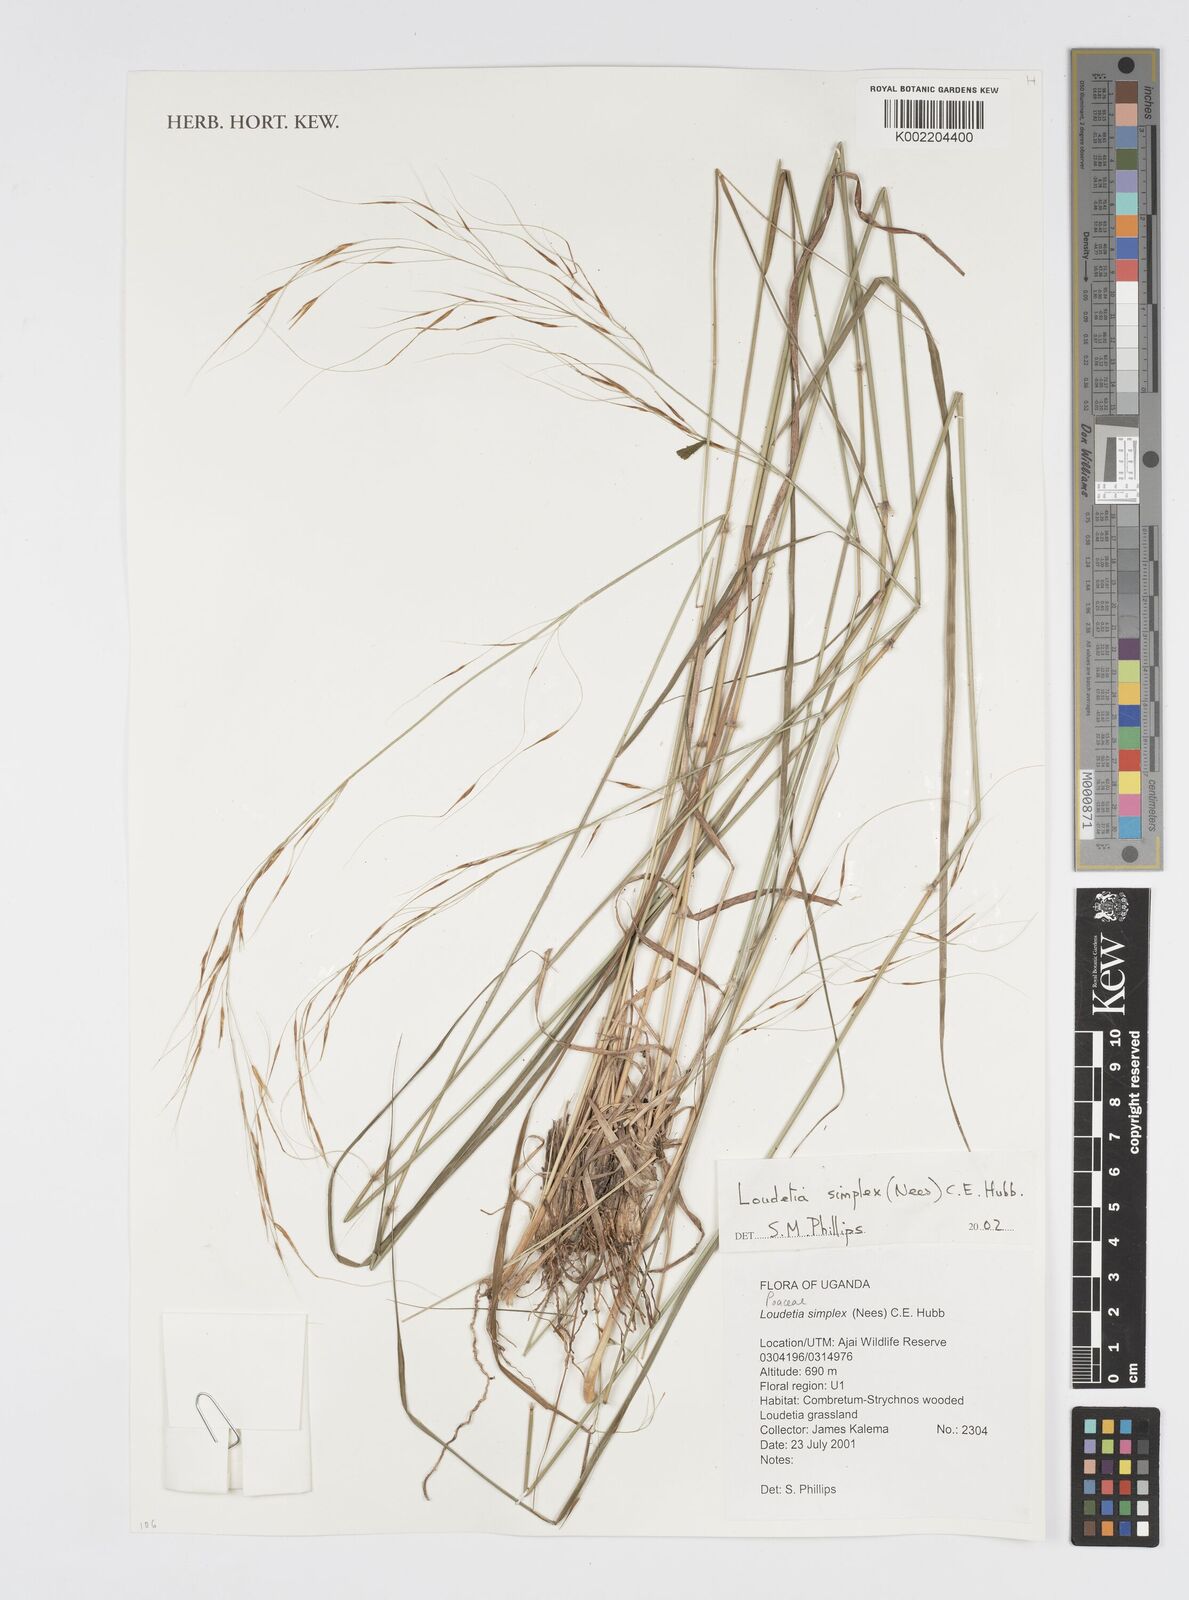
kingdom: Plantae
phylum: Tracheophyta
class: Liliopsida
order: Poales
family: Poaceae
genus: Loudetia
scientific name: Loudetia simplex
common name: Common russet grass
